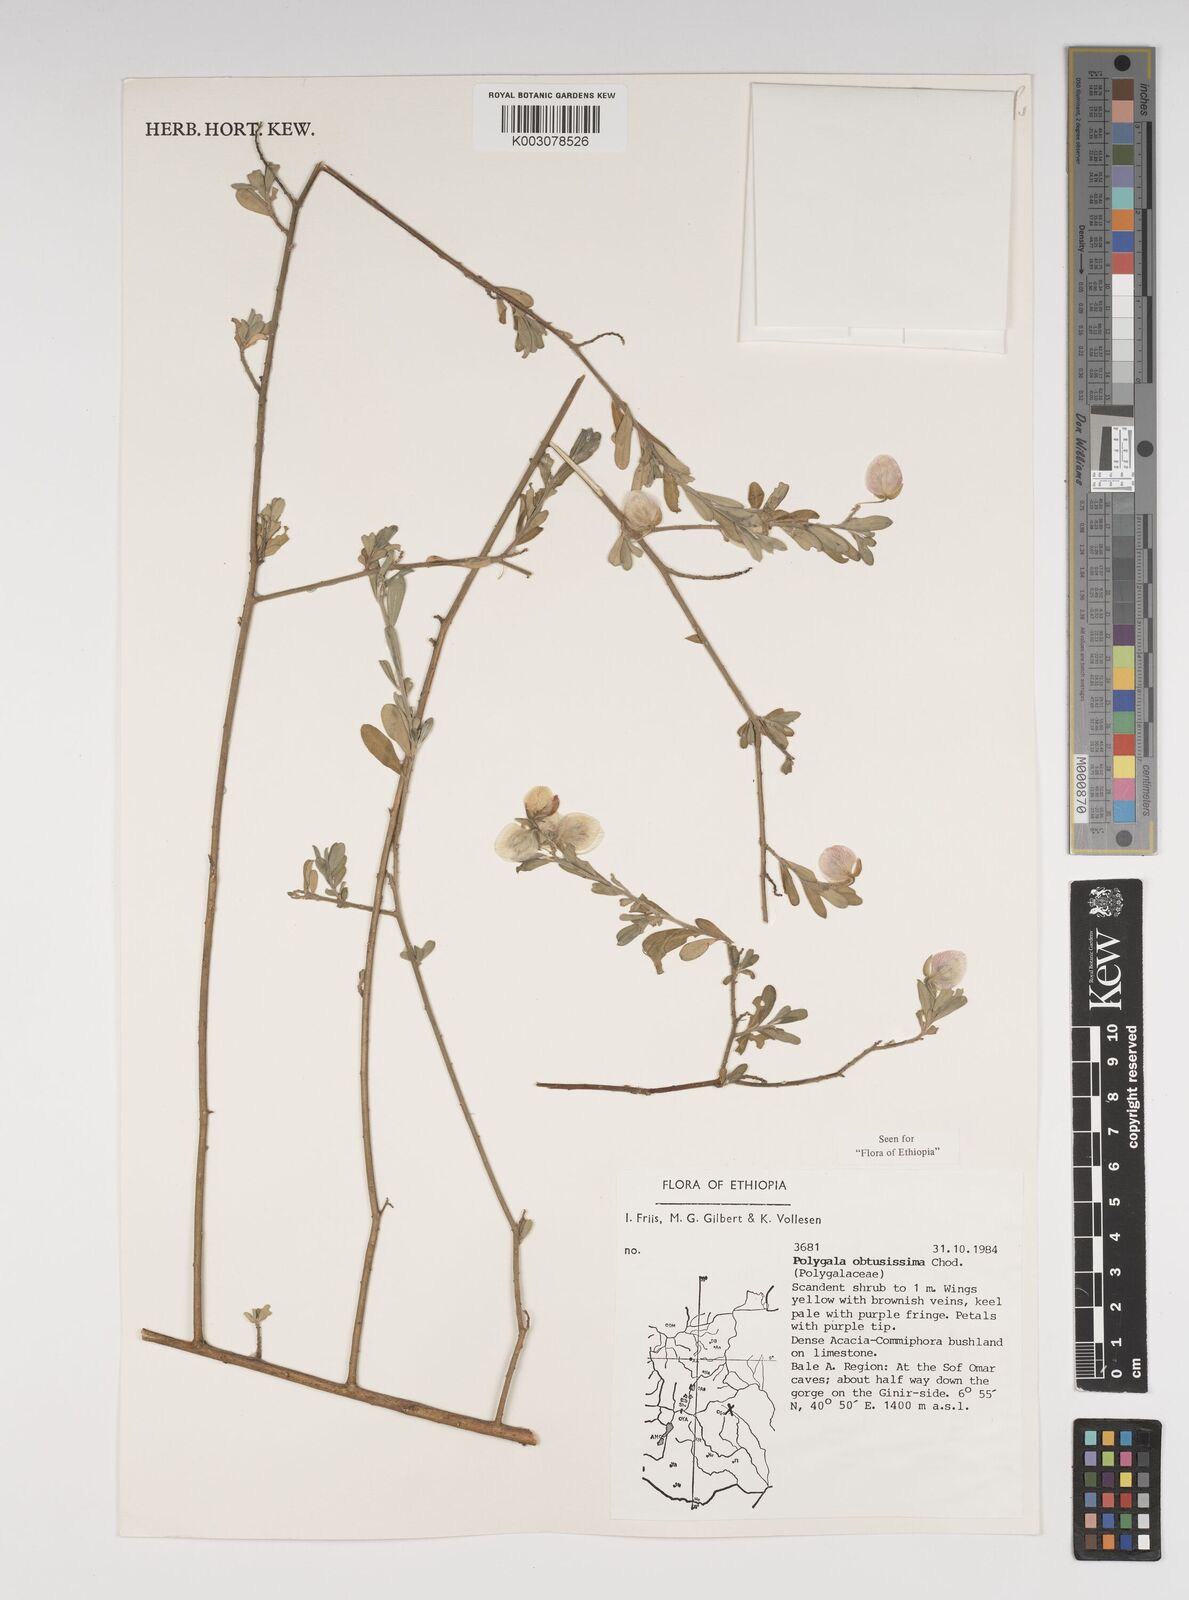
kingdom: Plantae
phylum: Tracheophyta
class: Magnoliopsida
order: Fabales
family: Polygalaceae
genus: Polygala
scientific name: Polygala senensis
